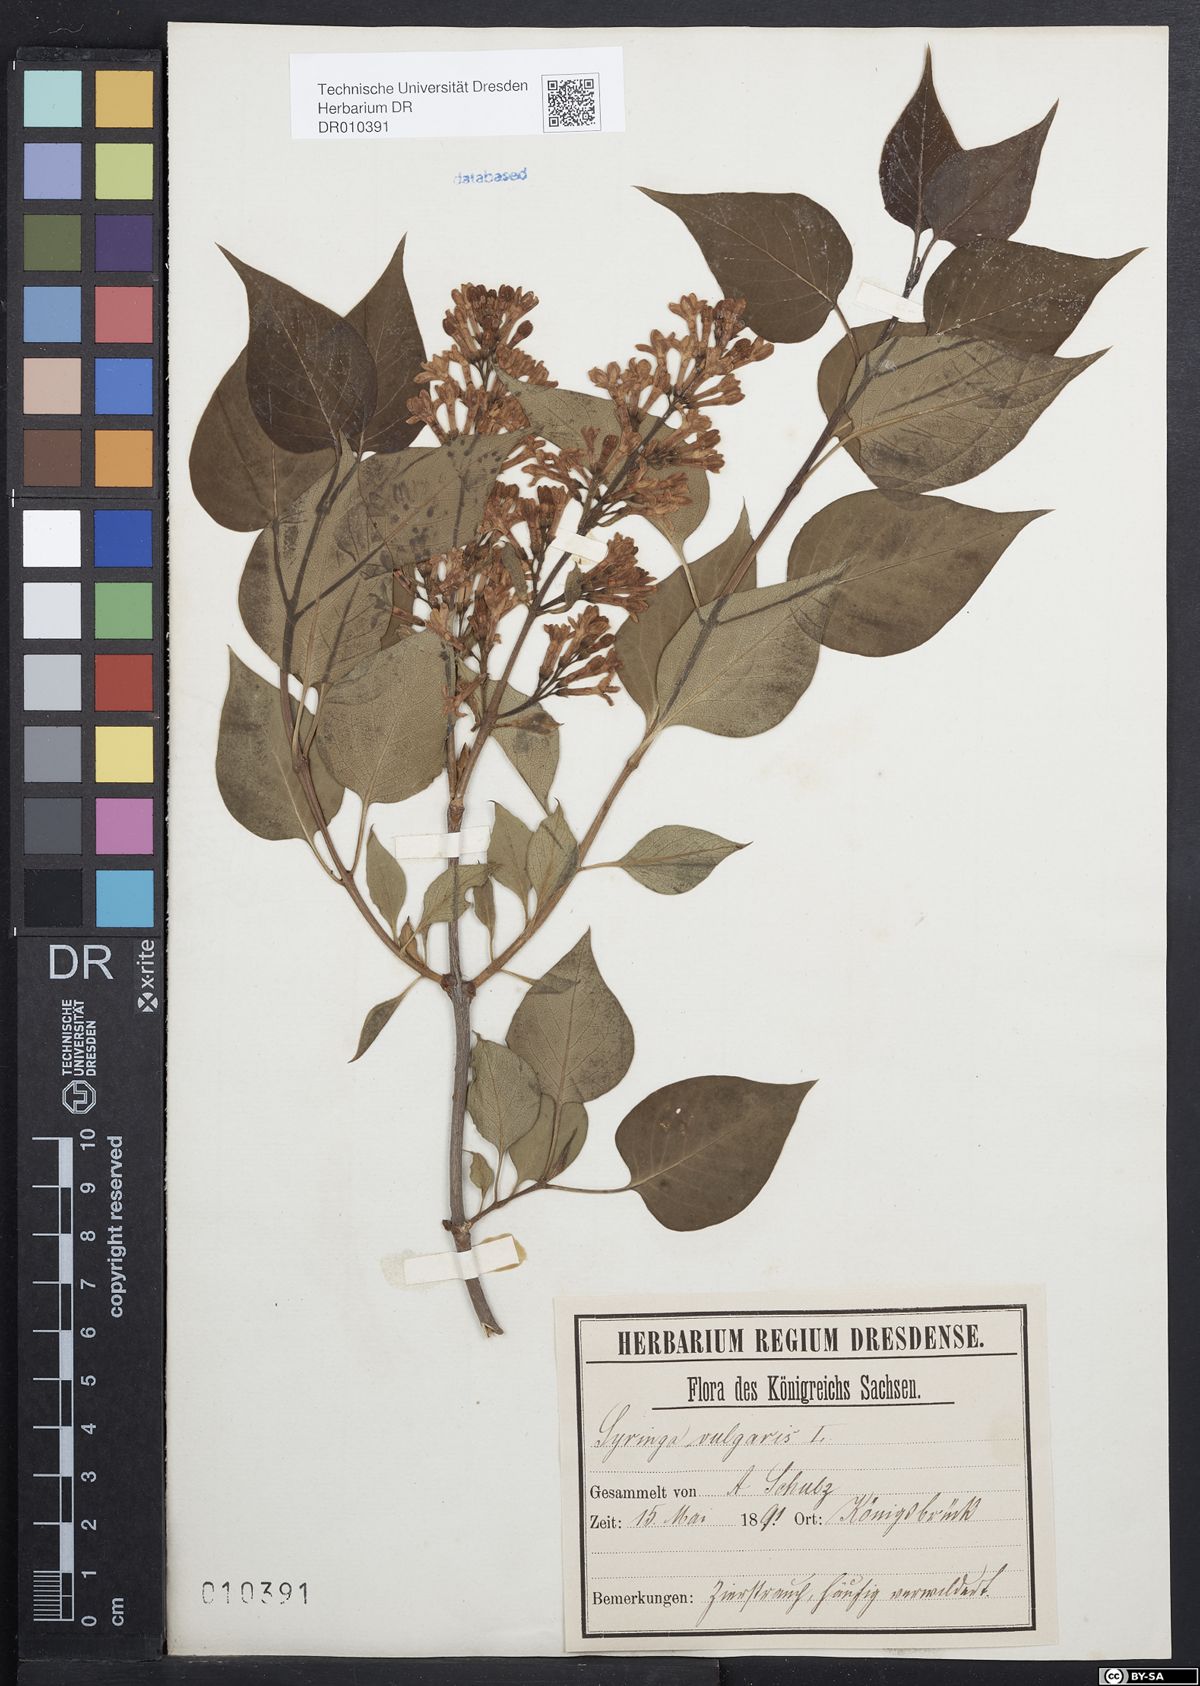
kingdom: Plantae
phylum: Tracheophyta
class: Magnoliopsida
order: Lamiales
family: Oleaceae
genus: Syringa
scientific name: Syringa vulgaris
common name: Common lilac
